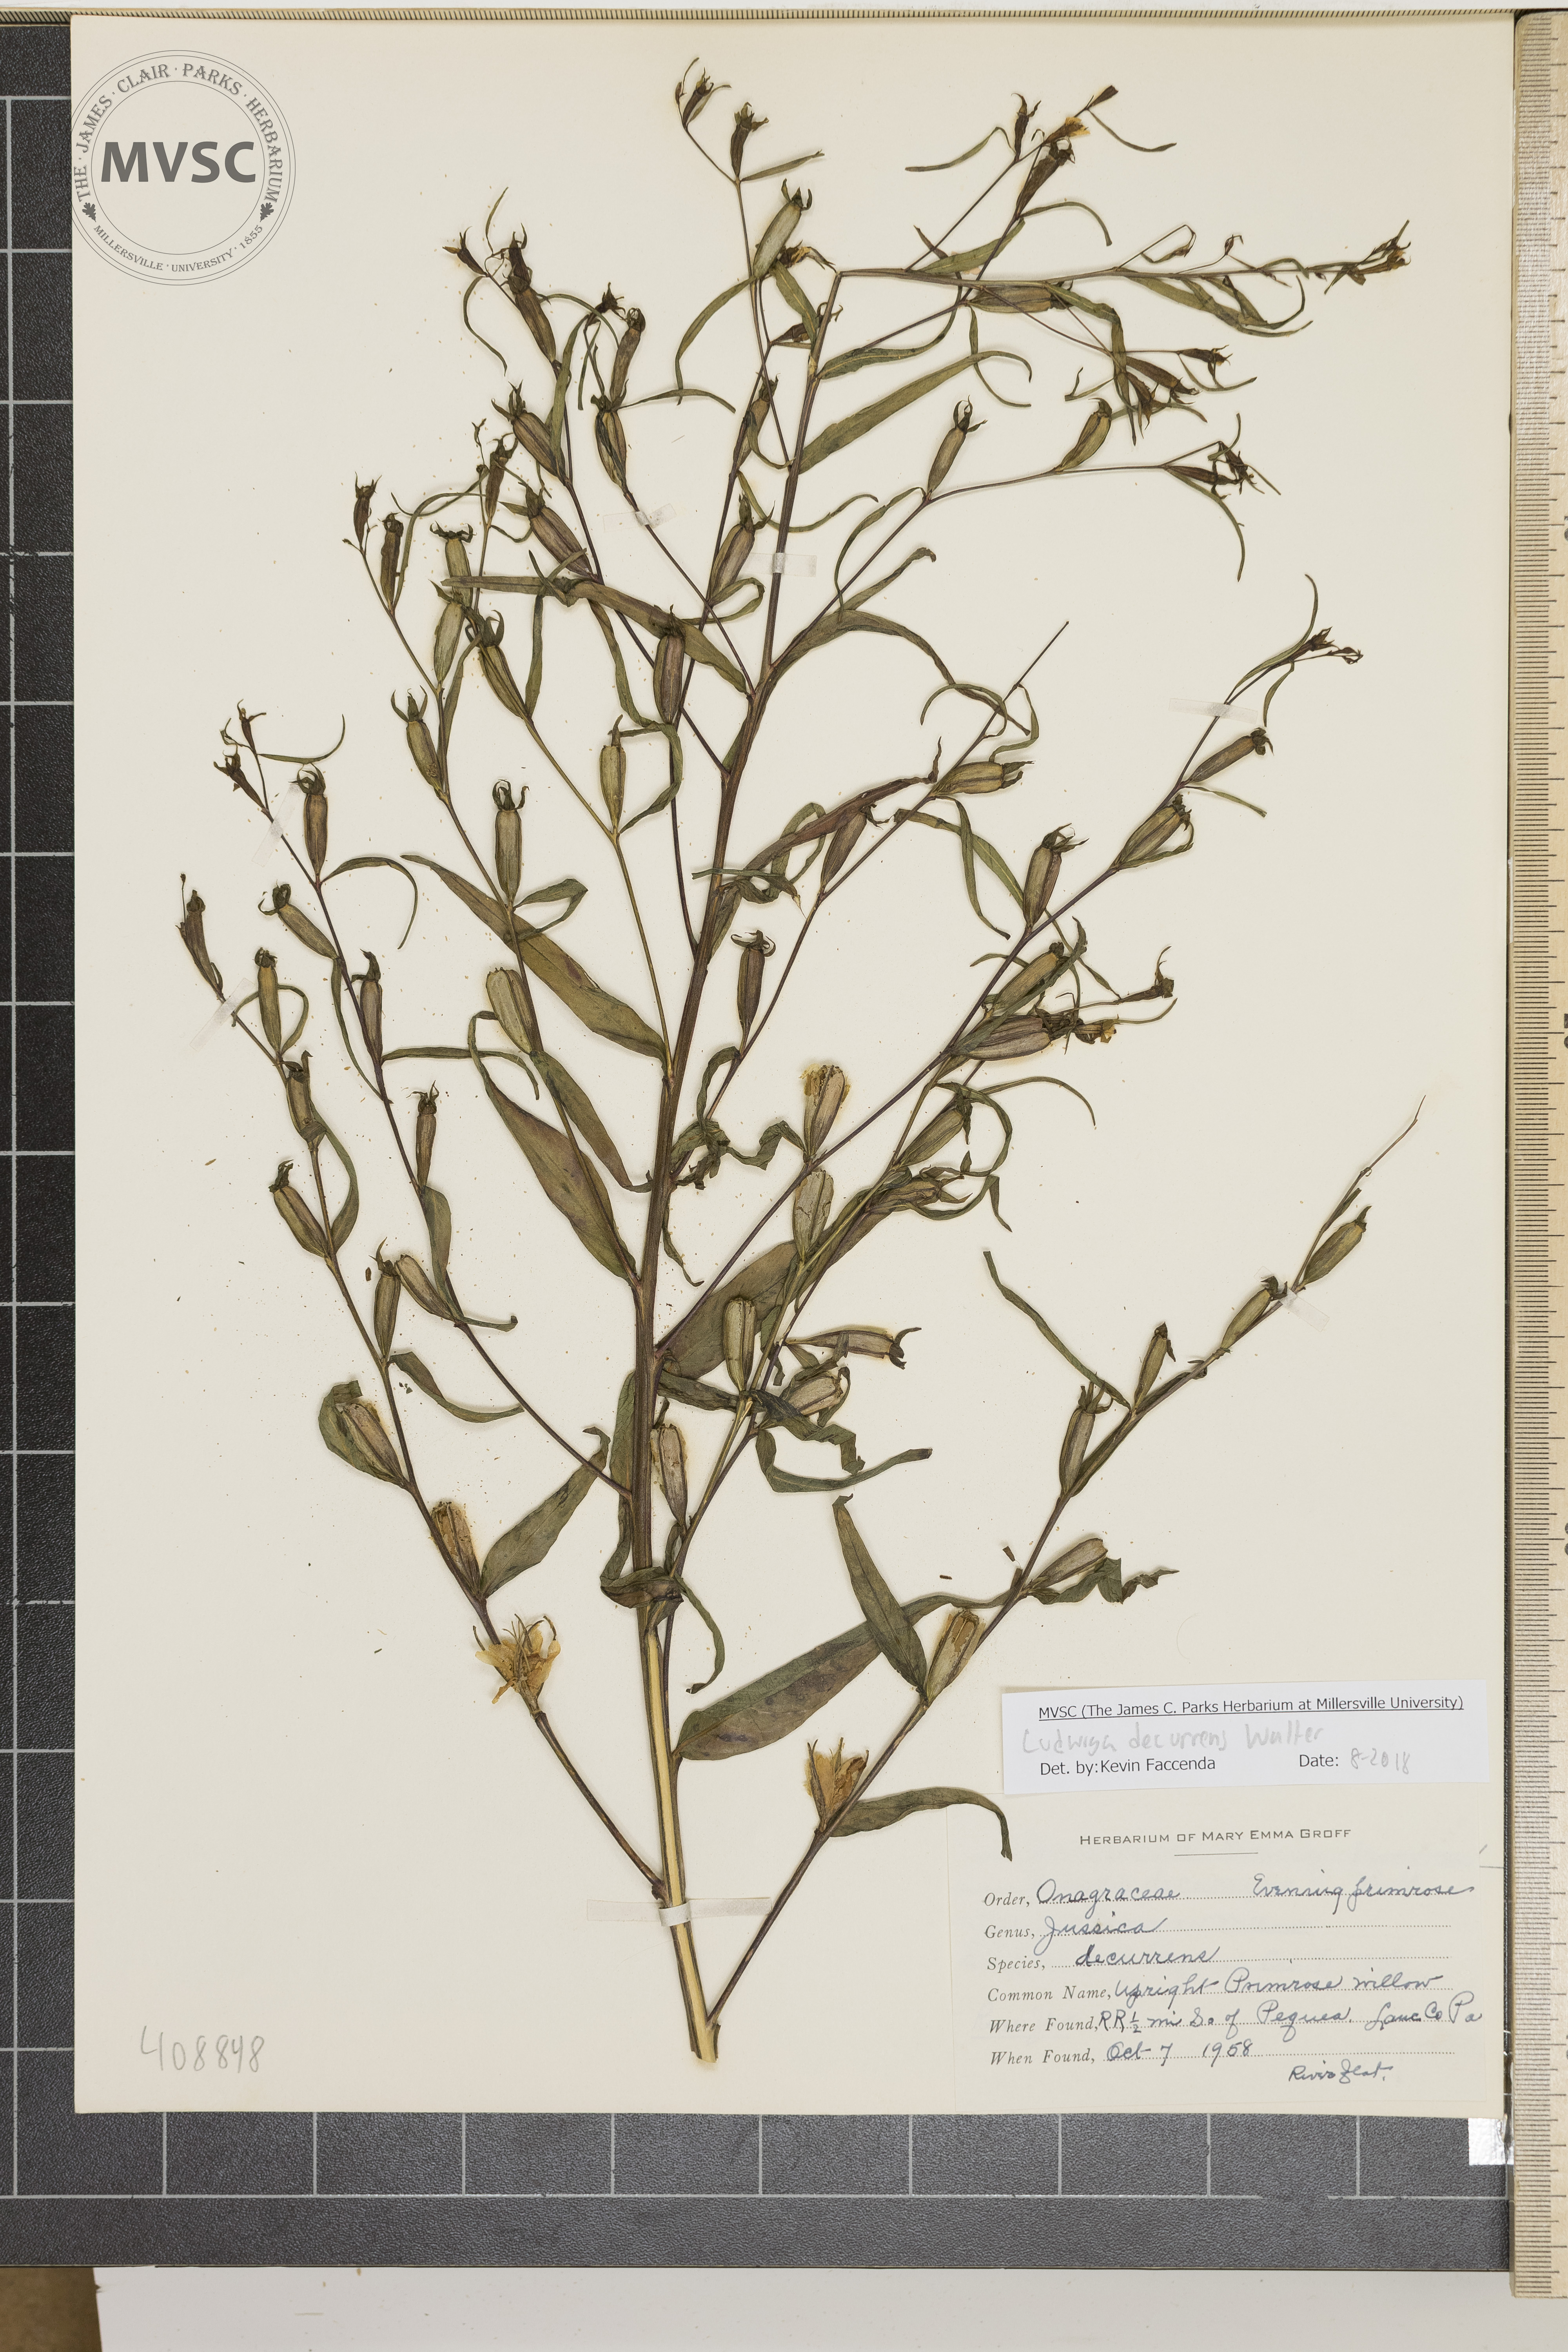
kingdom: Plantae
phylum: Tracheophyta
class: Magnoliopsida
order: Myrtales
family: Onagraceae
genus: Ludwigia
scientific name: Ludwigia decurrens
